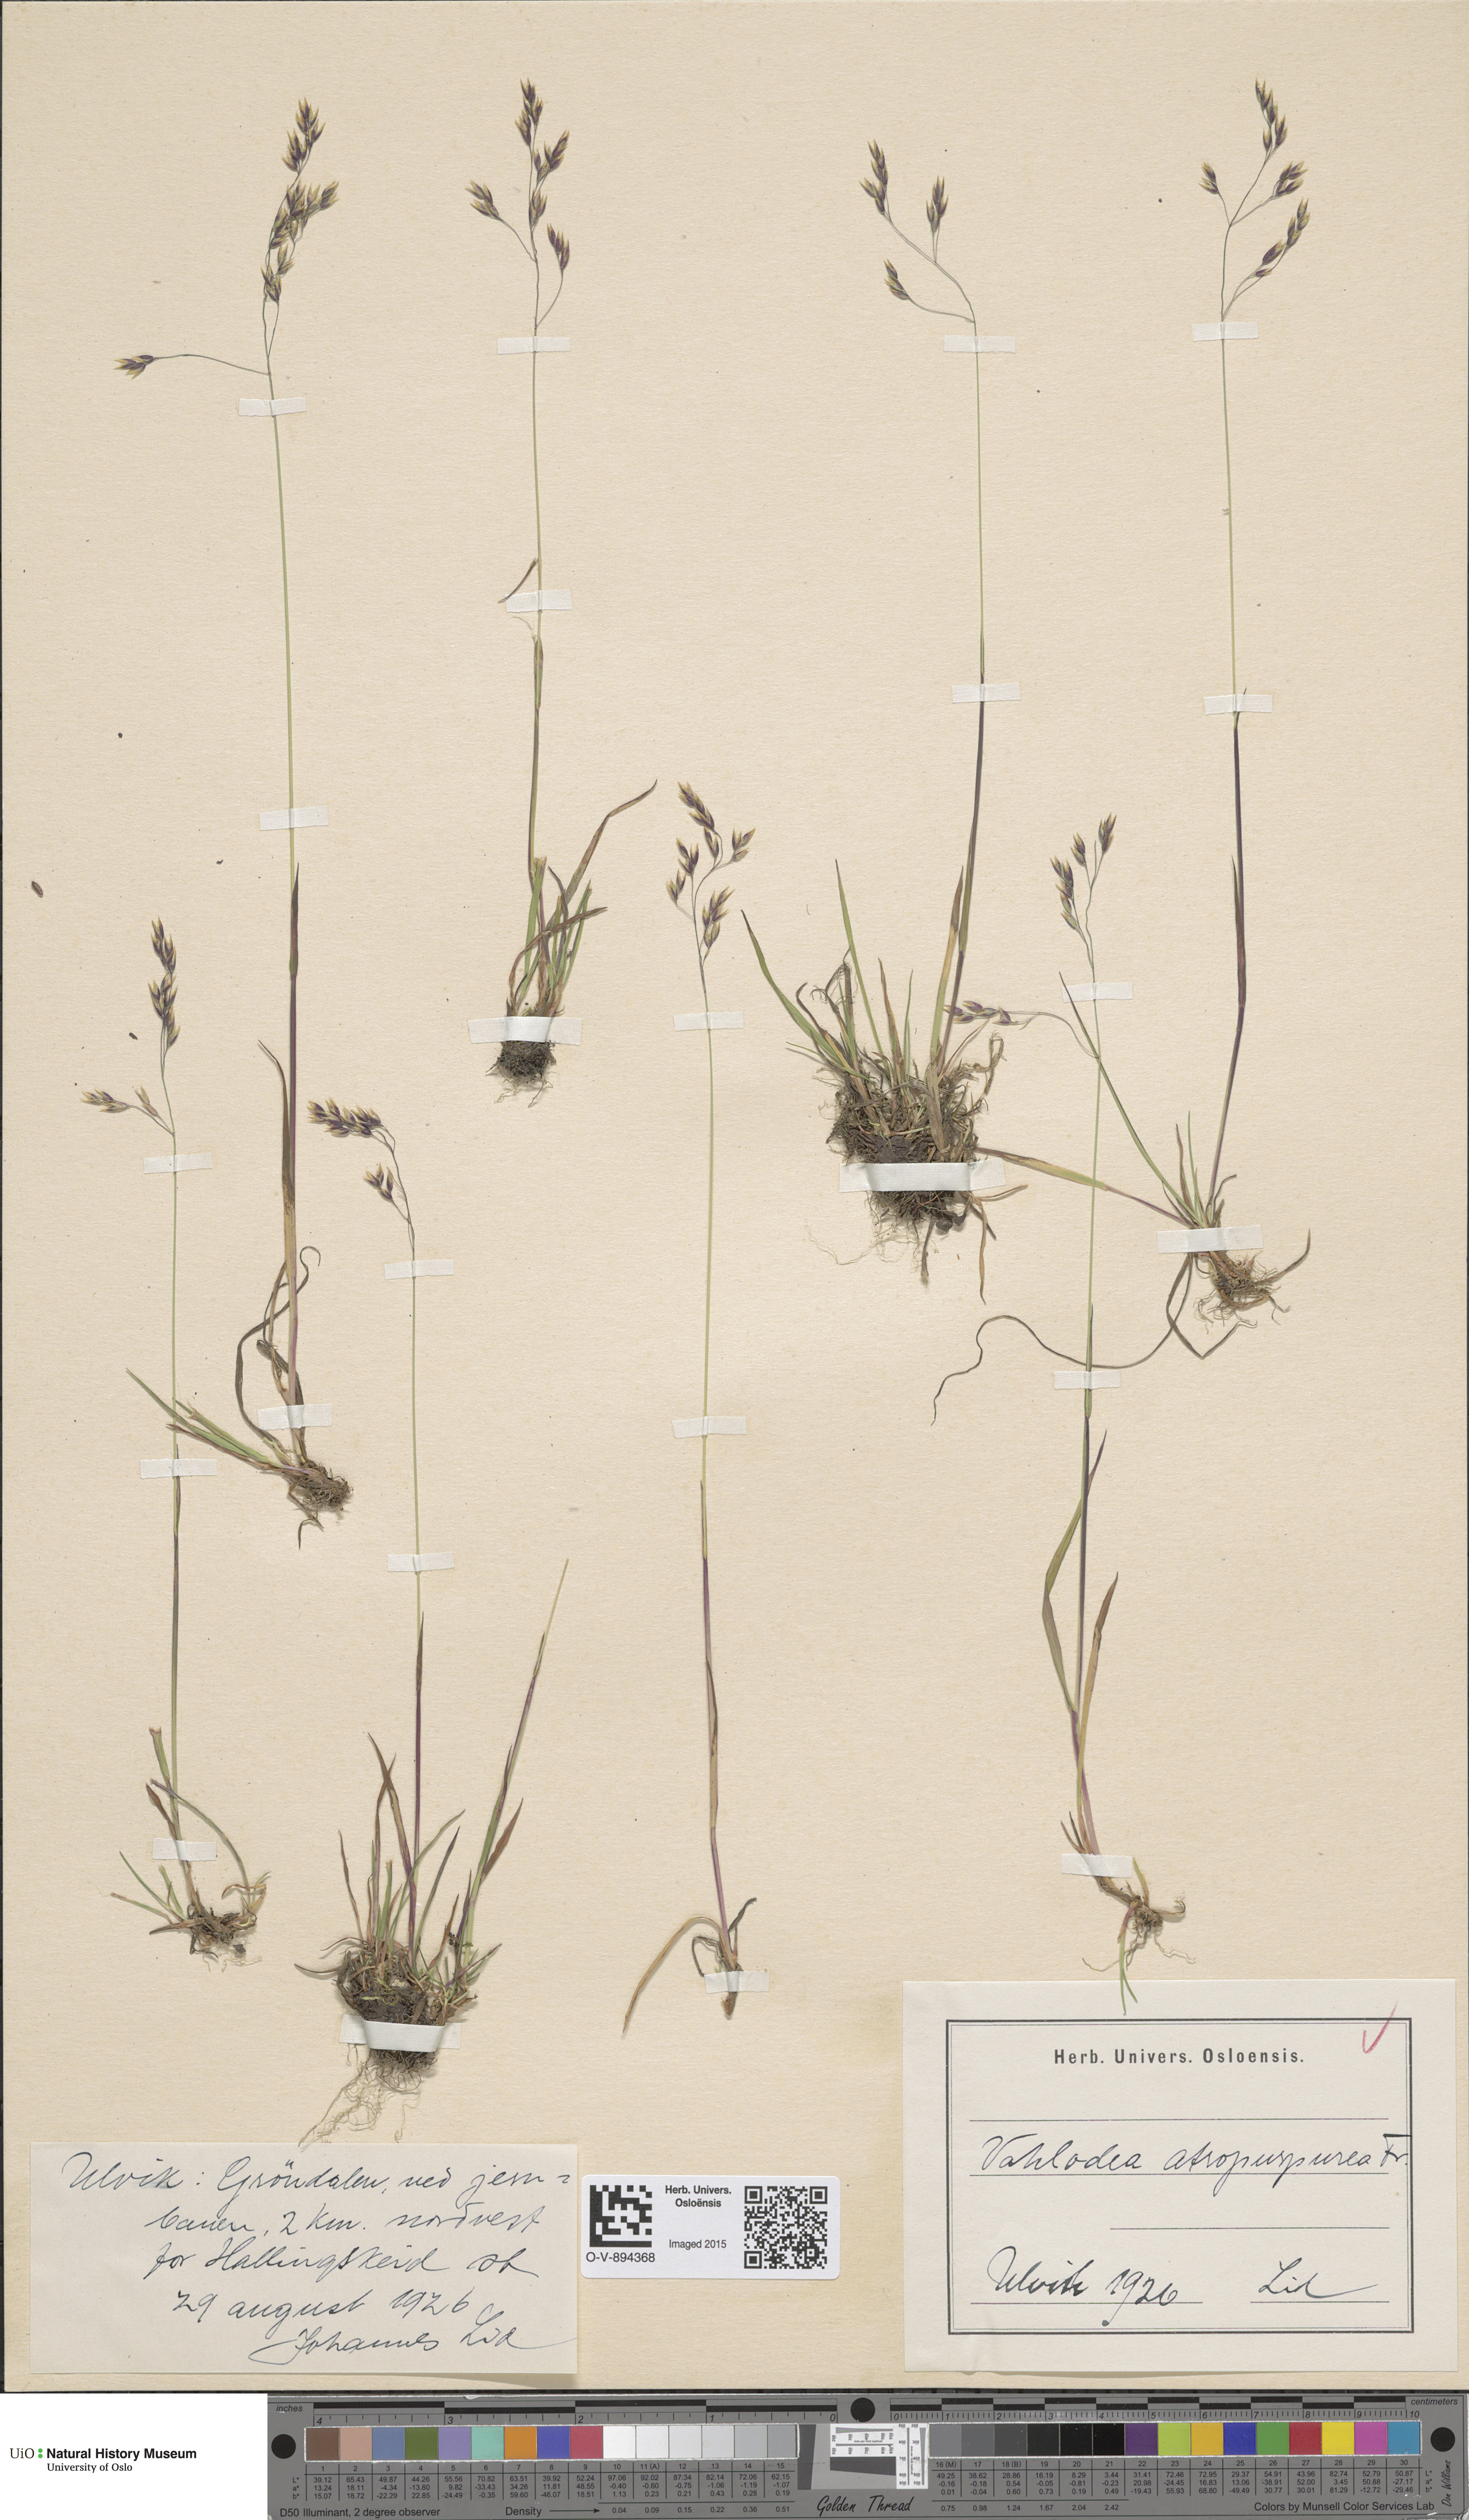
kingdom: Plantae
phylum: Tracheophyta
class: Liliopsida
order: Poales
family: Poaceae
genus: Vahlodea
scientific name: Vahlodea atropurpurea
